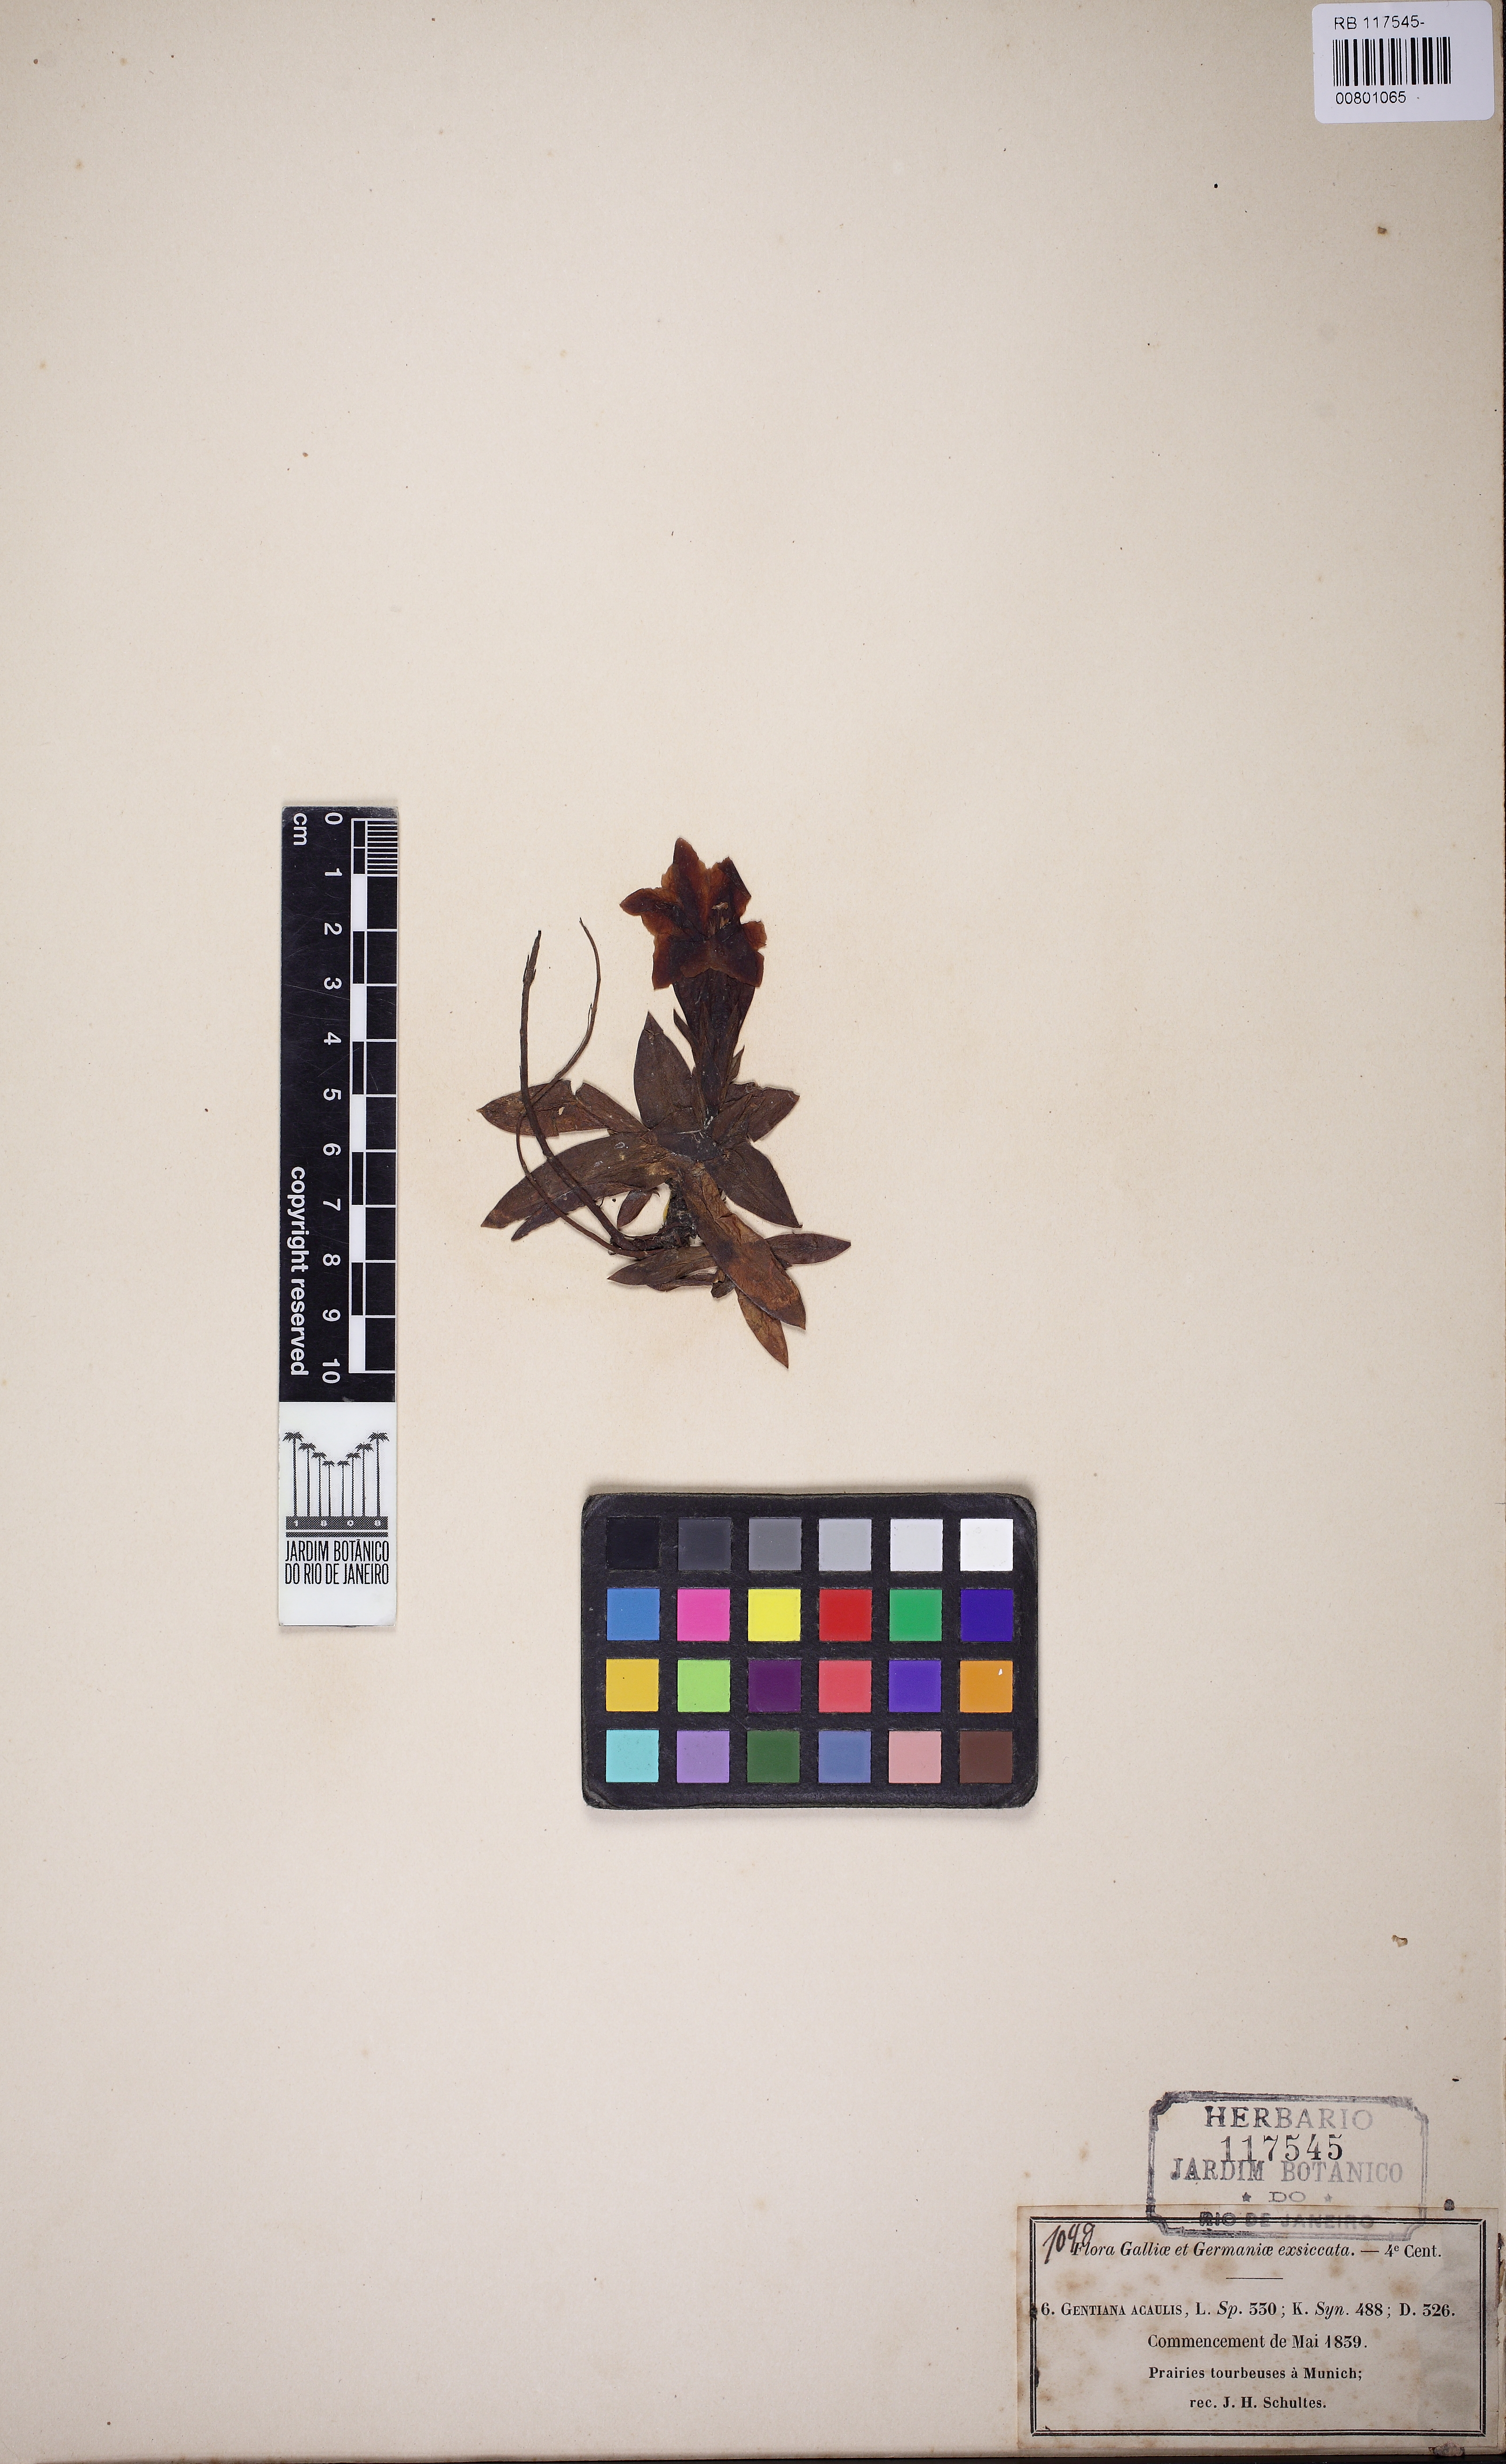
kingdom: Plantae
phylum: Tracheophyta
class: Magnoliopsida
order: Gentianales
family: Gentianaceae
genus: Gentiana
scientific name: Gentiana acaulis
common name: Trumpet gentian
